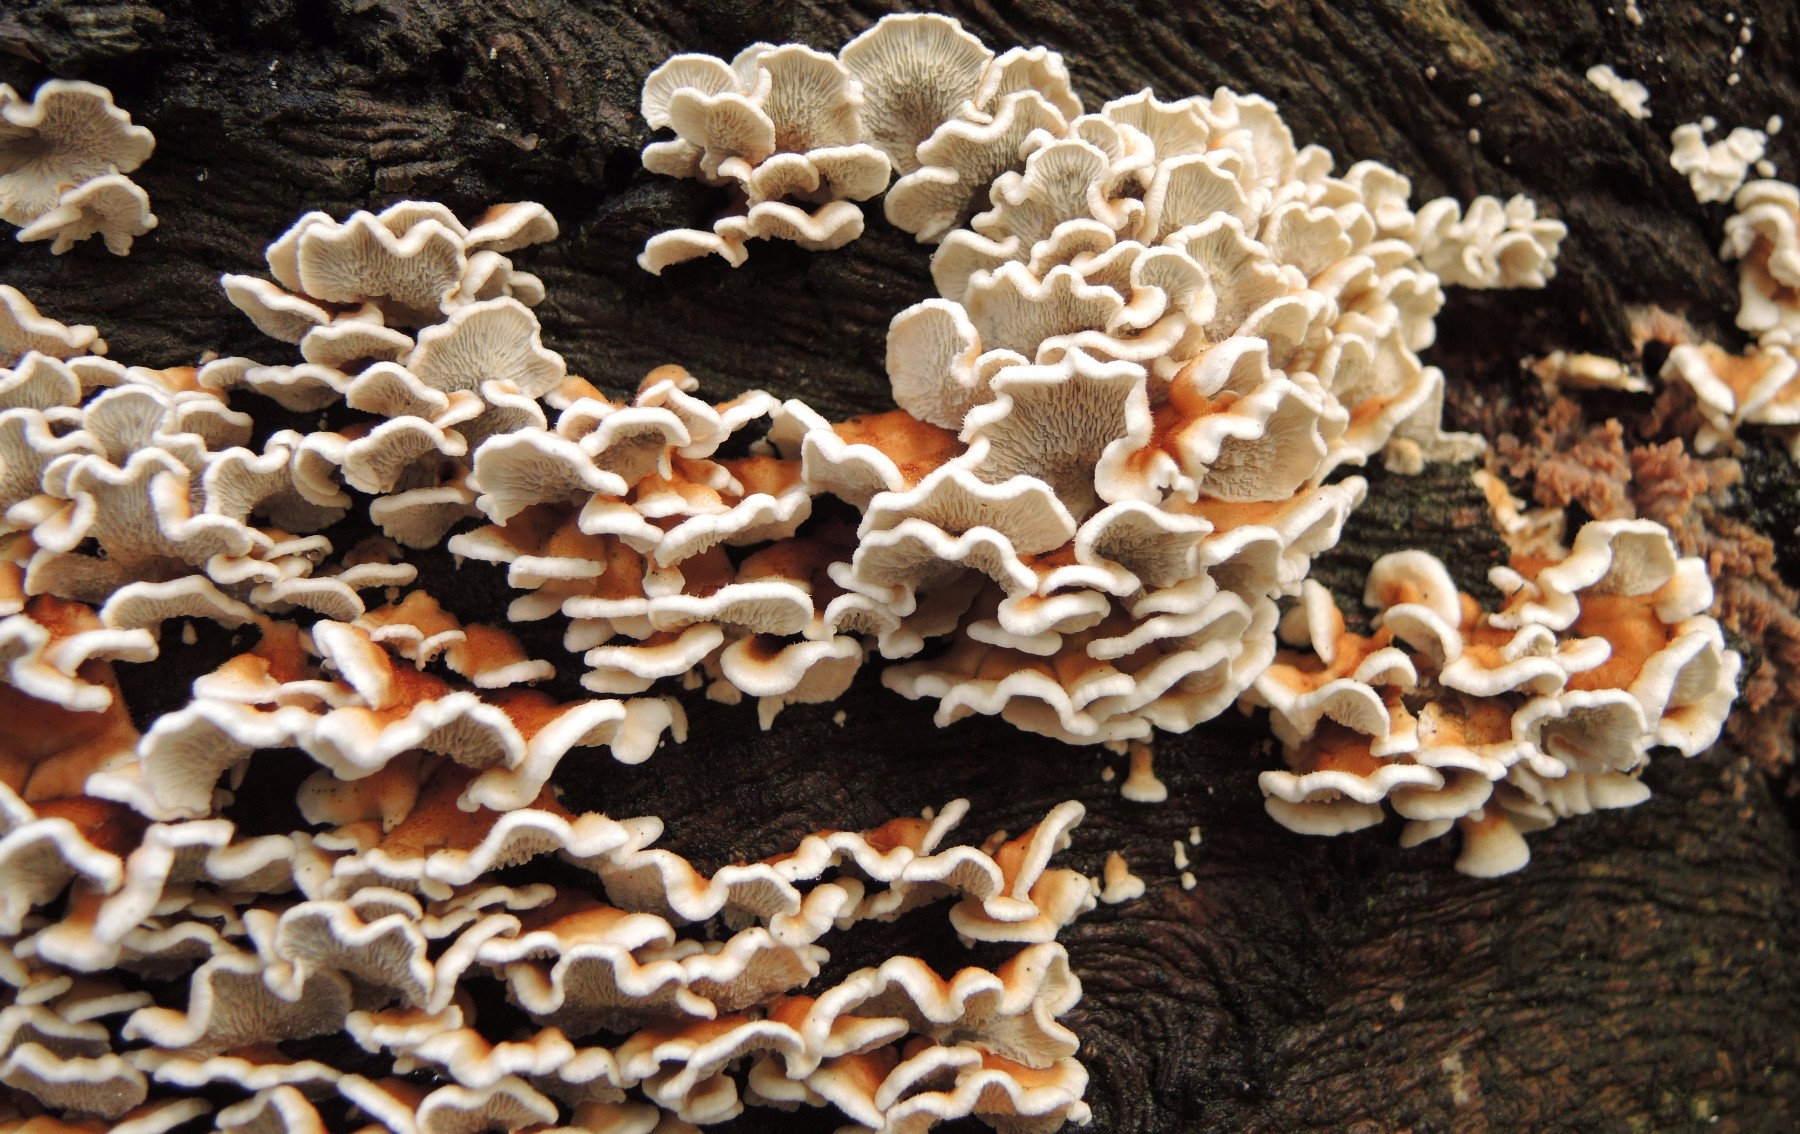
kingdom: Fungi
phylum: Basidiomycota
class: Agaricomycetes
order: Amylocorticiales
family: Amylocorticiaceae
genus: Plicaturopsis
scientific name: Plicaturopsis crispa
